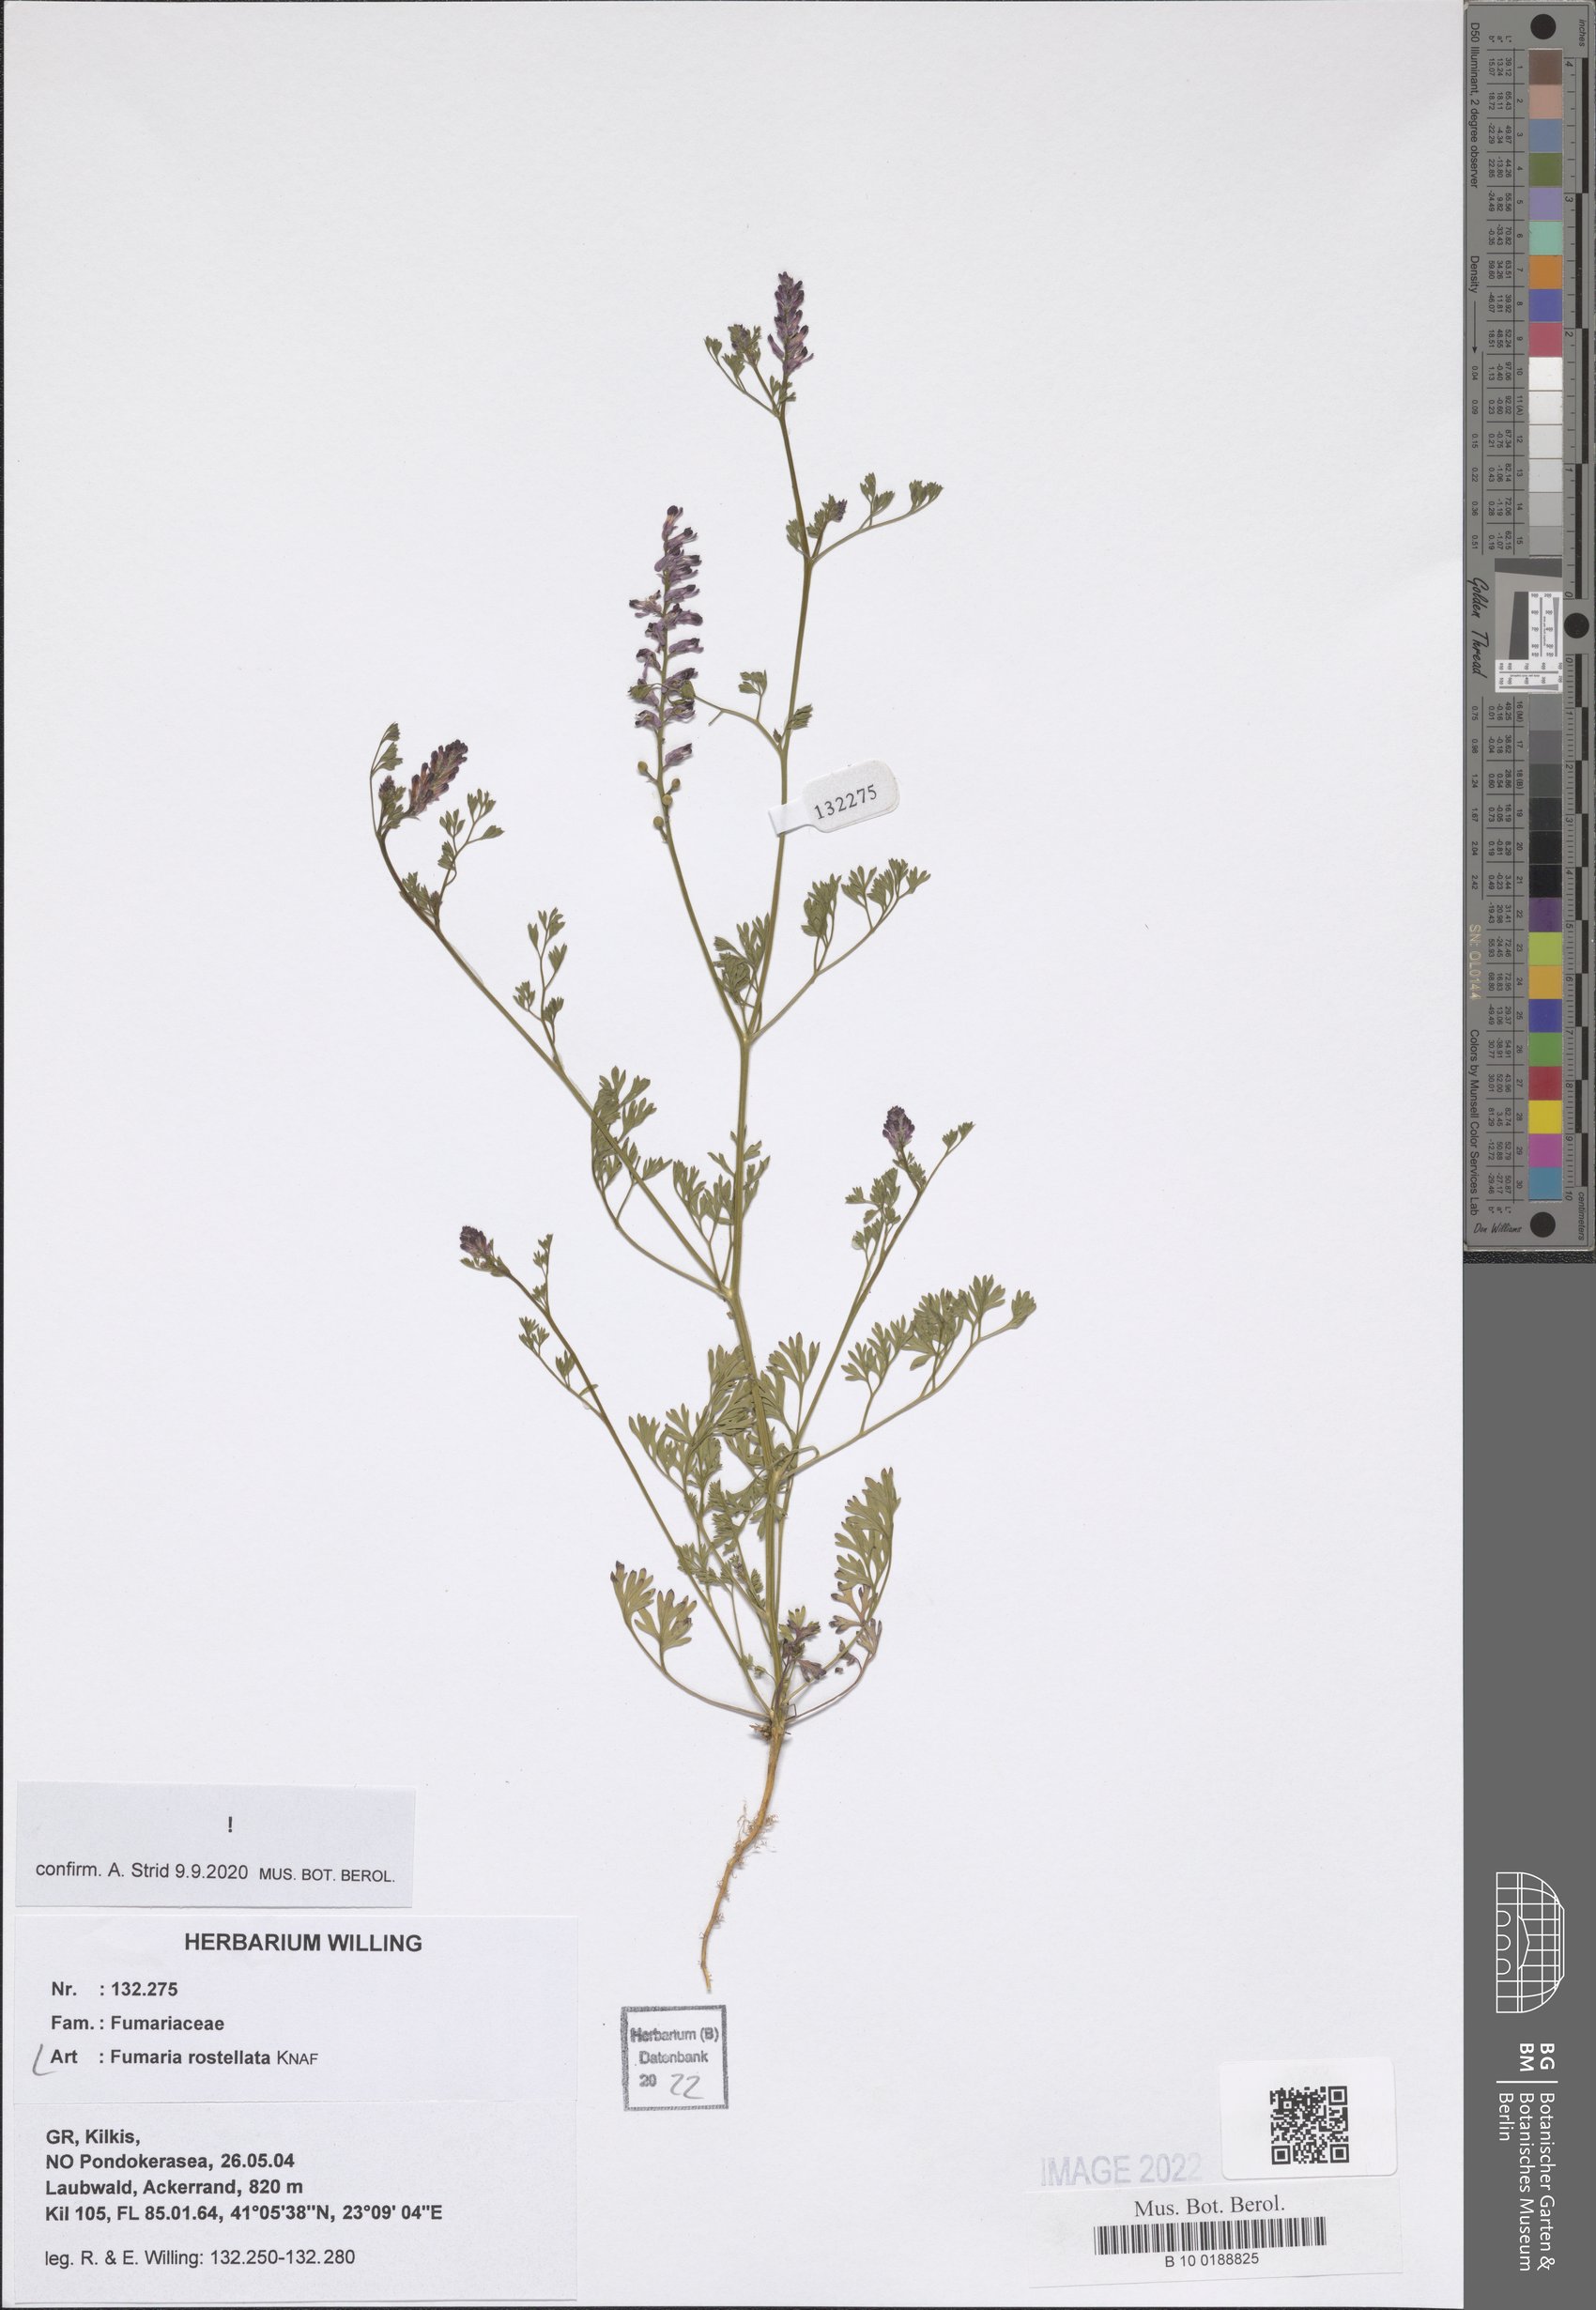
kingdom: Plantae
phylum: Tracheophyta
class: Magnoliopsida
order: Ranunculales
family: Papaveraceae
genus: Fumaria
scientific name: Fumaria rostellata
